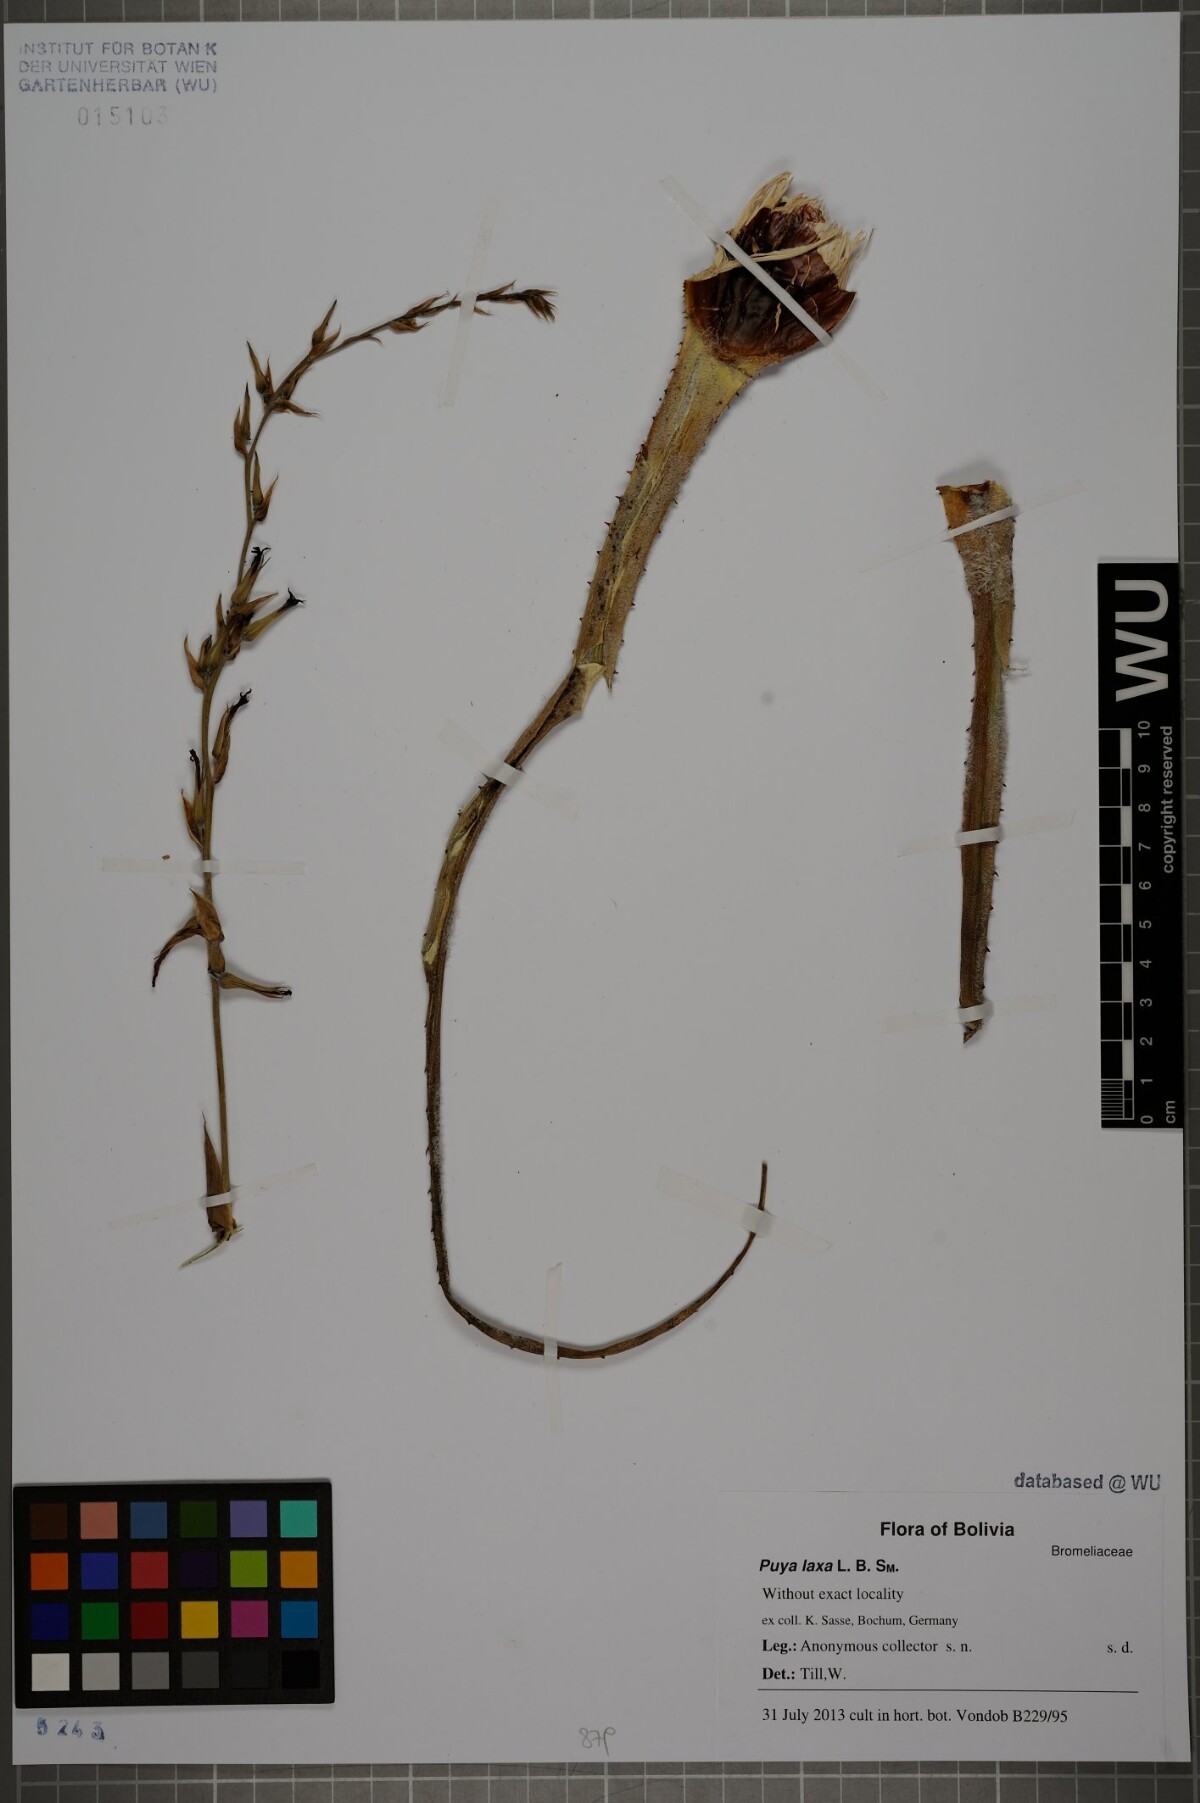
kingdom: Plantae
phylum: Tracheophyta
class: Liliopsida
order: Poales
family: Bromeliaceae
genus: Puya
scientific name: Puya laxa
